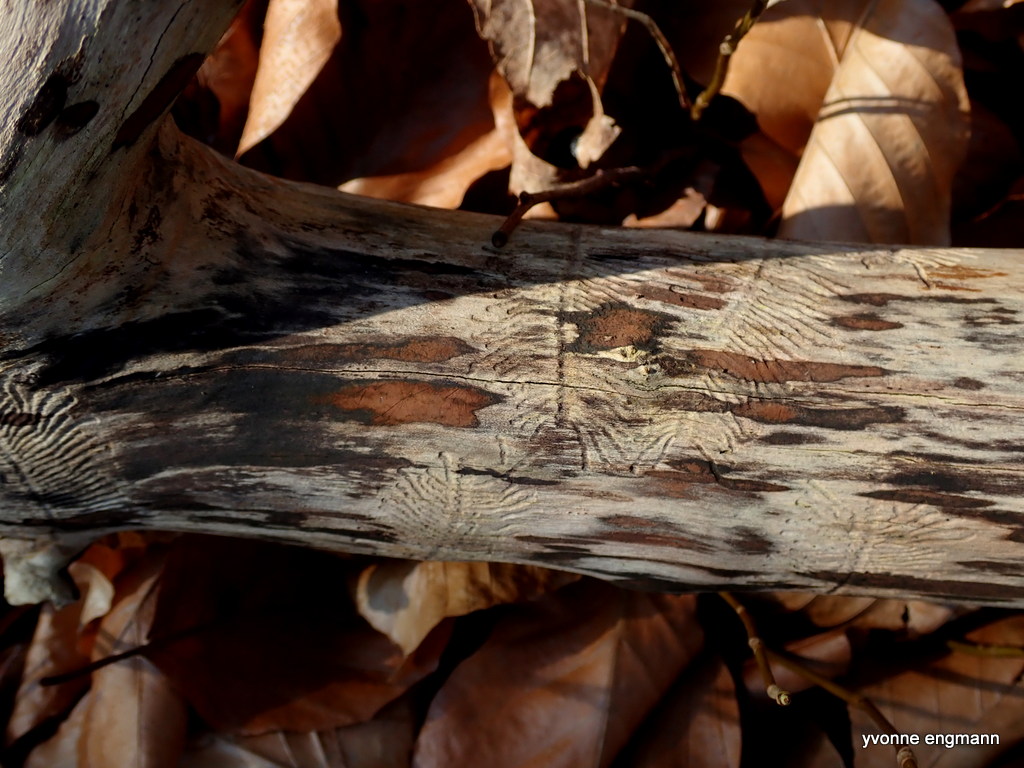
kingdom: Fungi
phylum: Ascomycota
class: Sordariomycetes
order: Xylariales
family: Hypoxylaceae
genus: Hypoxylon
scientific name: Hypoxylon petriniae
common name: nedsænket kulbær
